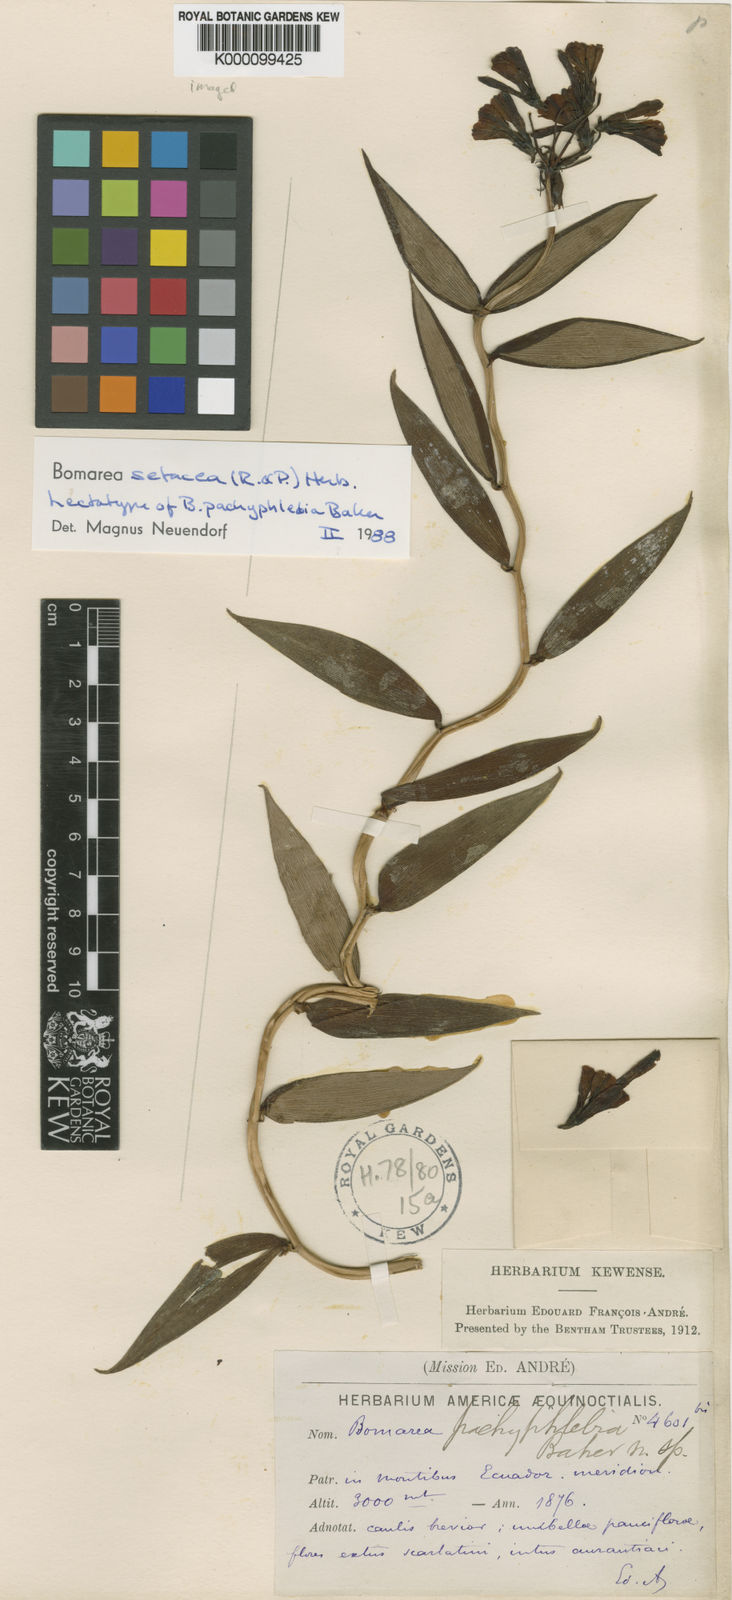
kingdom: Plantae
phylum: Tracheophyta
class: Liliopsida
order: Liliales
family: Alstroemeriaceae
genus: Bomarea
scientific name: Bomarea setacea
